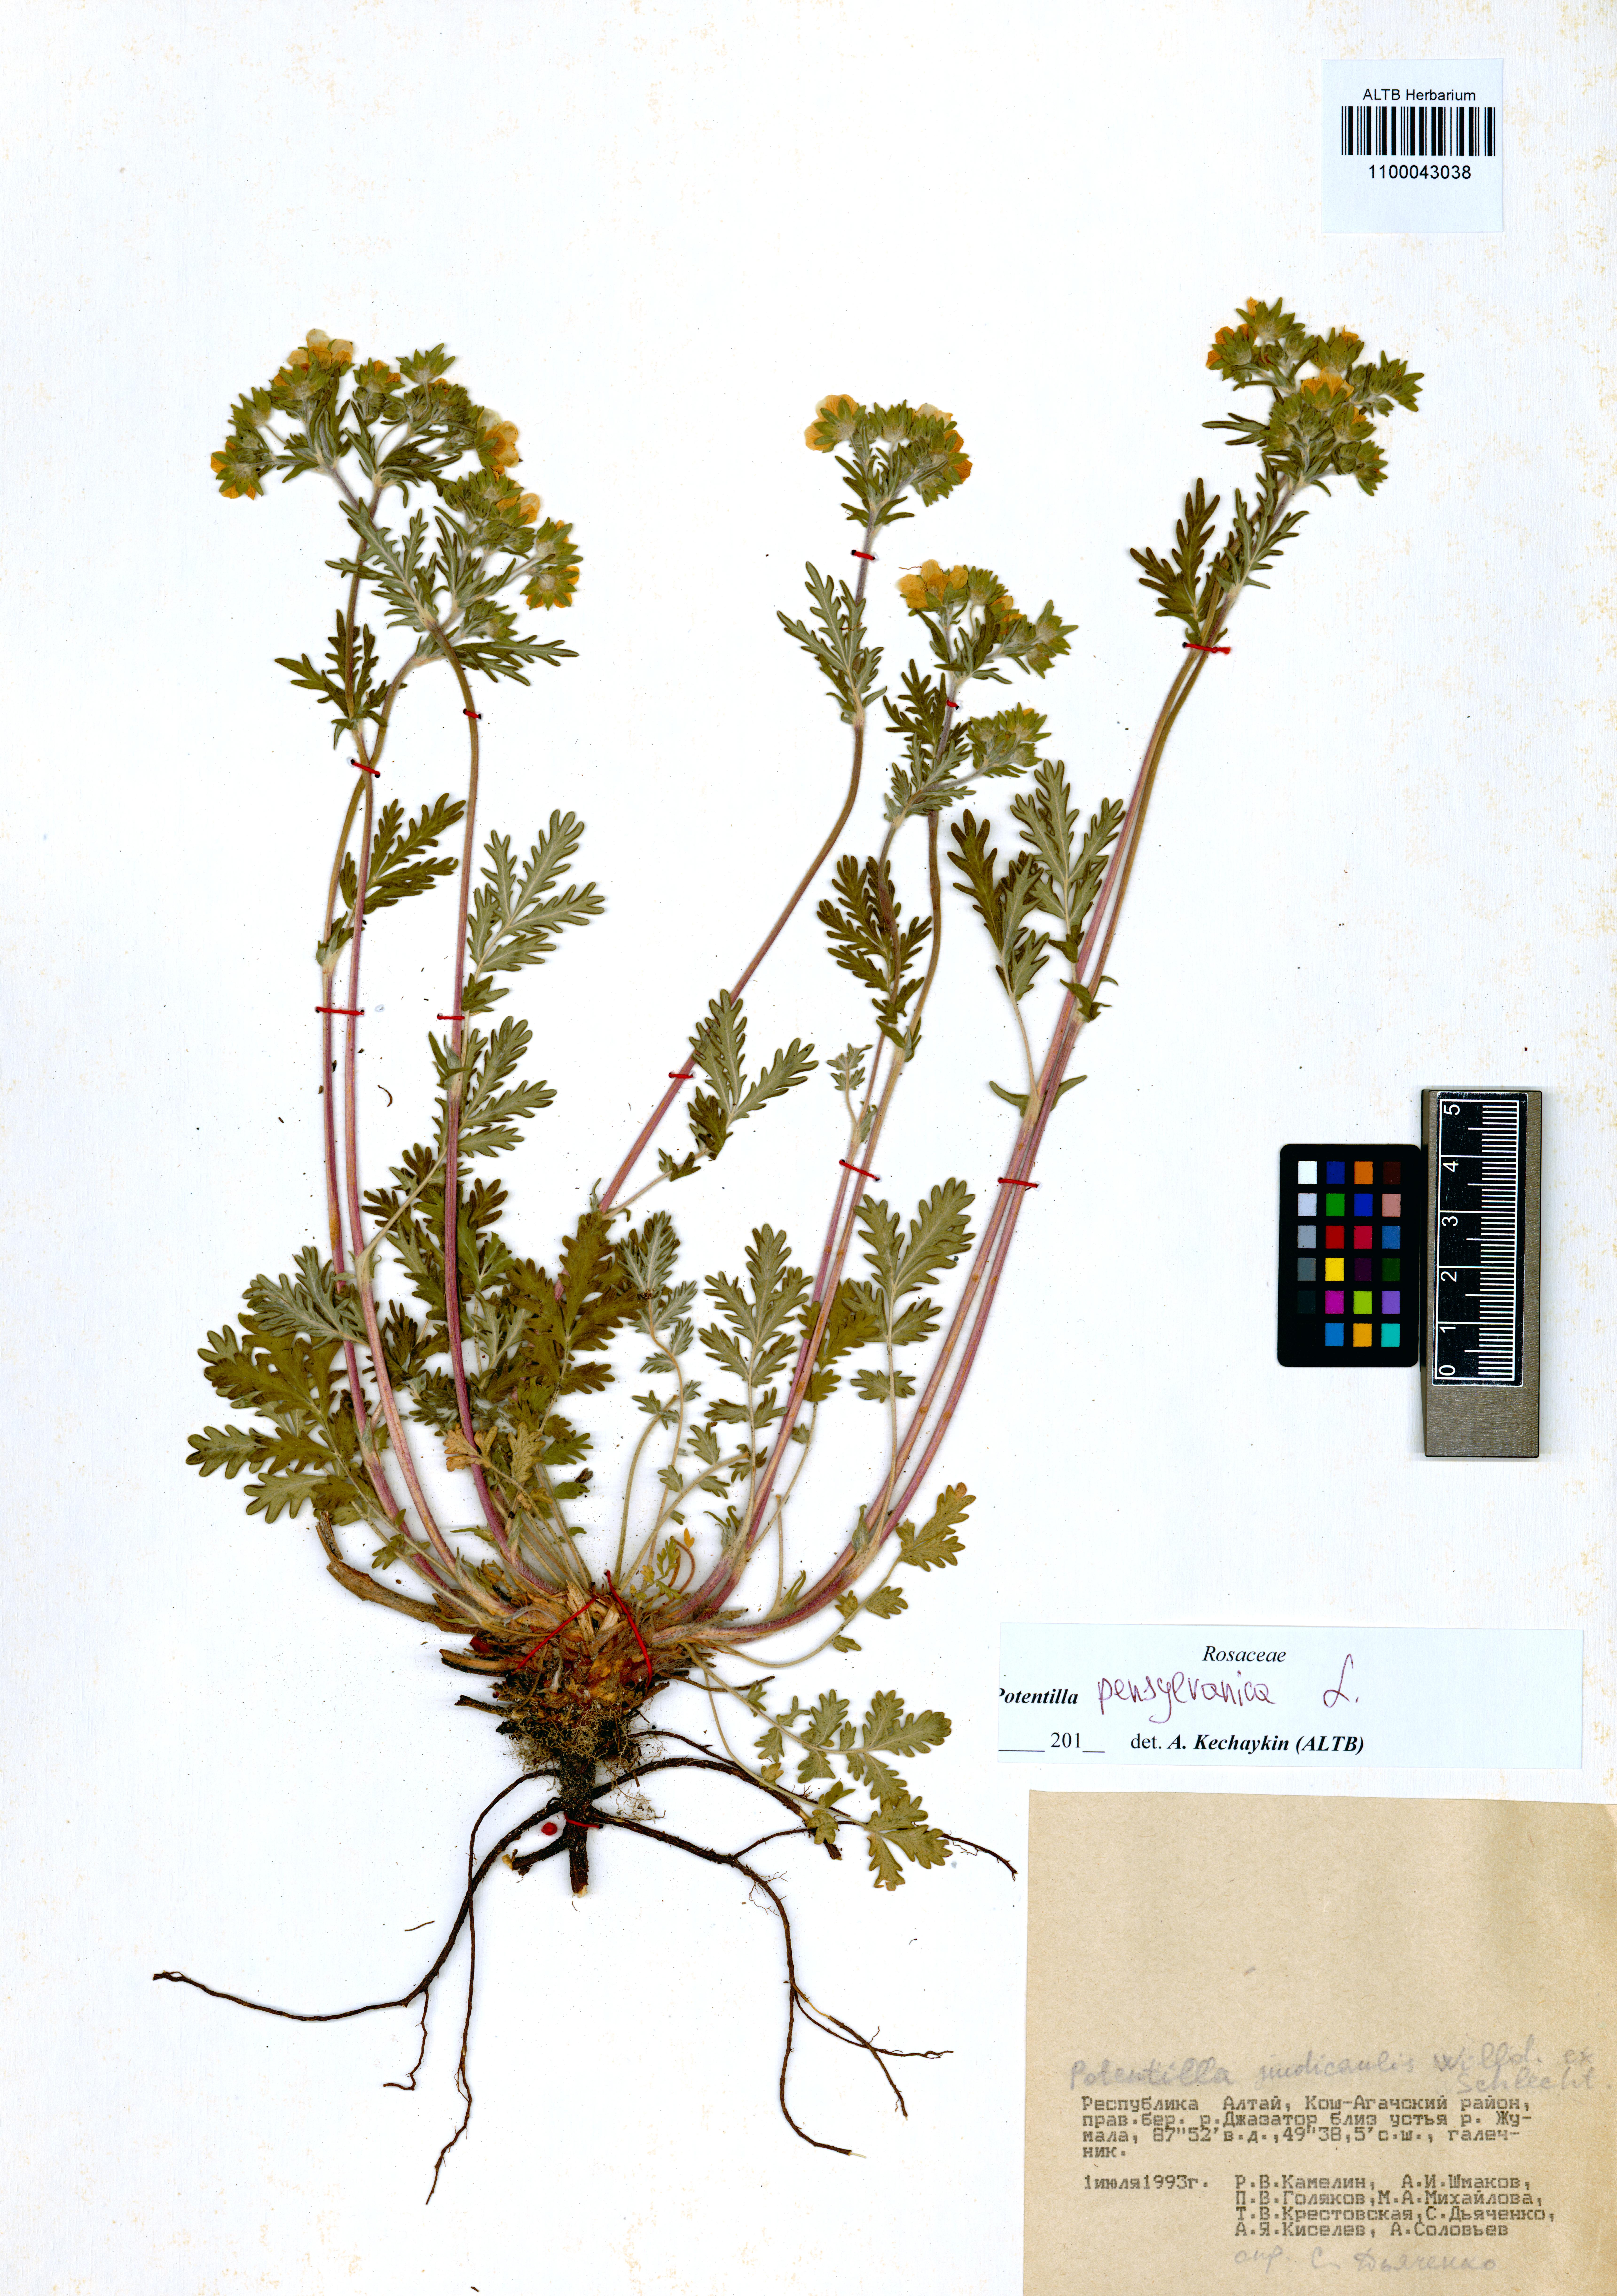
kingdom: Plantae
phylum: Tracheophyta
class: Magnoliopsida
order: Rosales
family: Rosaceae
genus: Potentilla
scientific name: Potentilla pensylvanica
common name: Pennsylvania cinquefoil
